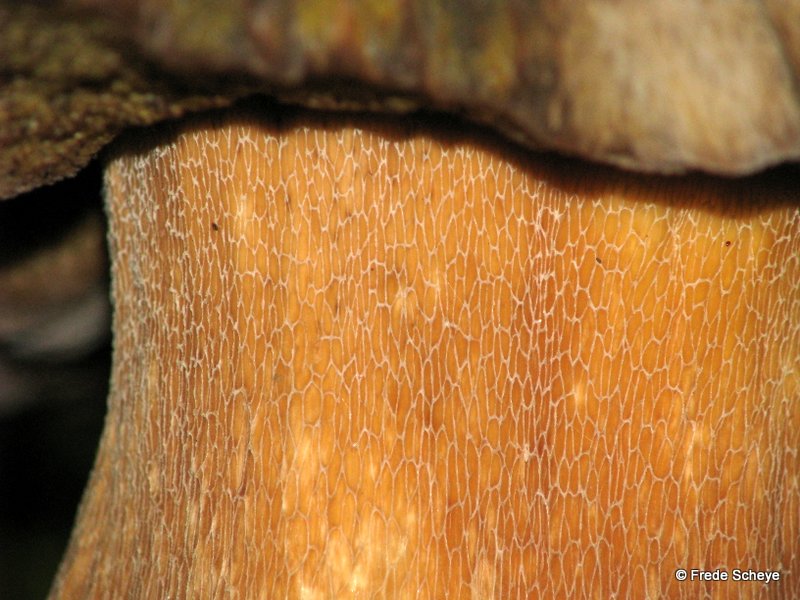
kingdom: Fungi
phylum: Basidiomycota
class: Agaricomycetes
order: Boletales
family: Boletaceae
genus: Boletus
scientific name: Boletus edulis
